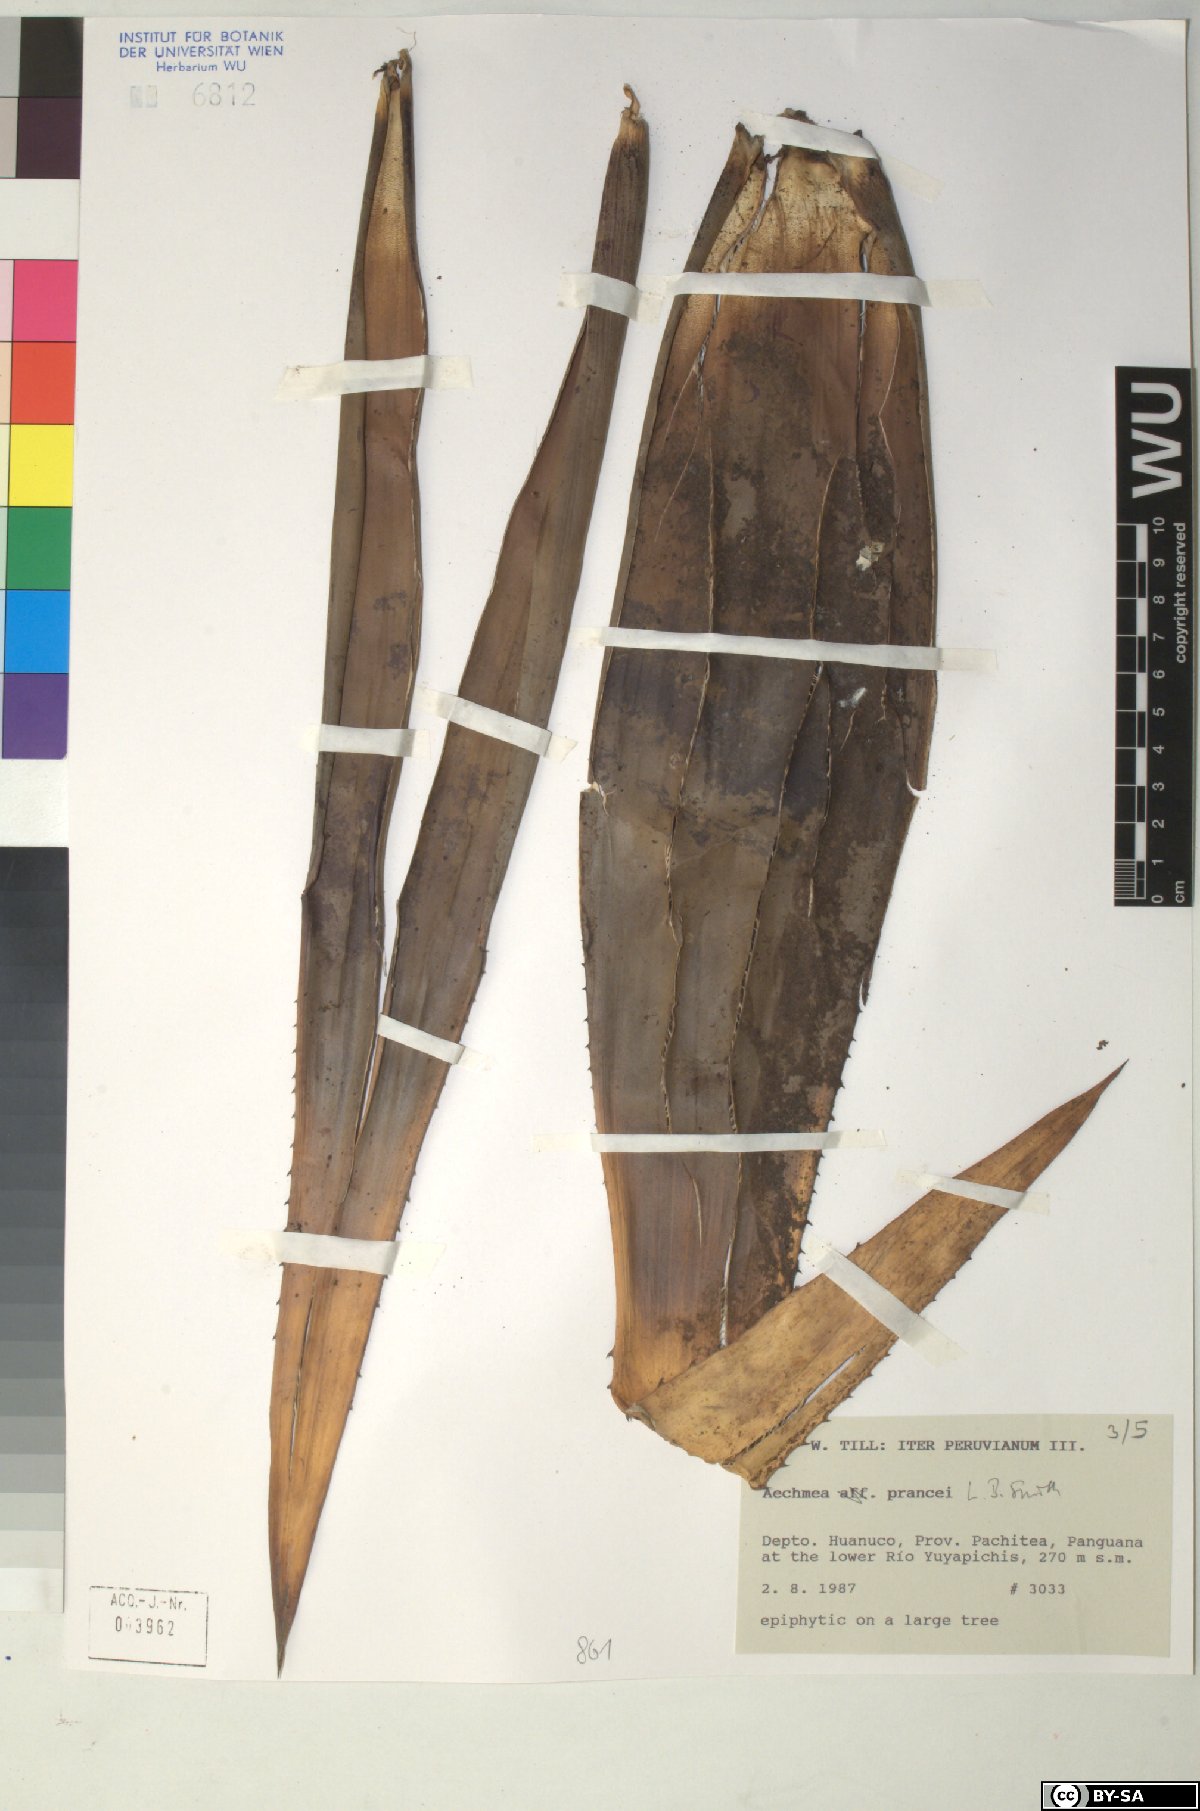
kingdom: Plantae
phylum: Tracheophyta
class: Liliopsida
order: Poales
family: Bromeliaceae
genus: Aechmea
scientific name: Aechmea prancei
